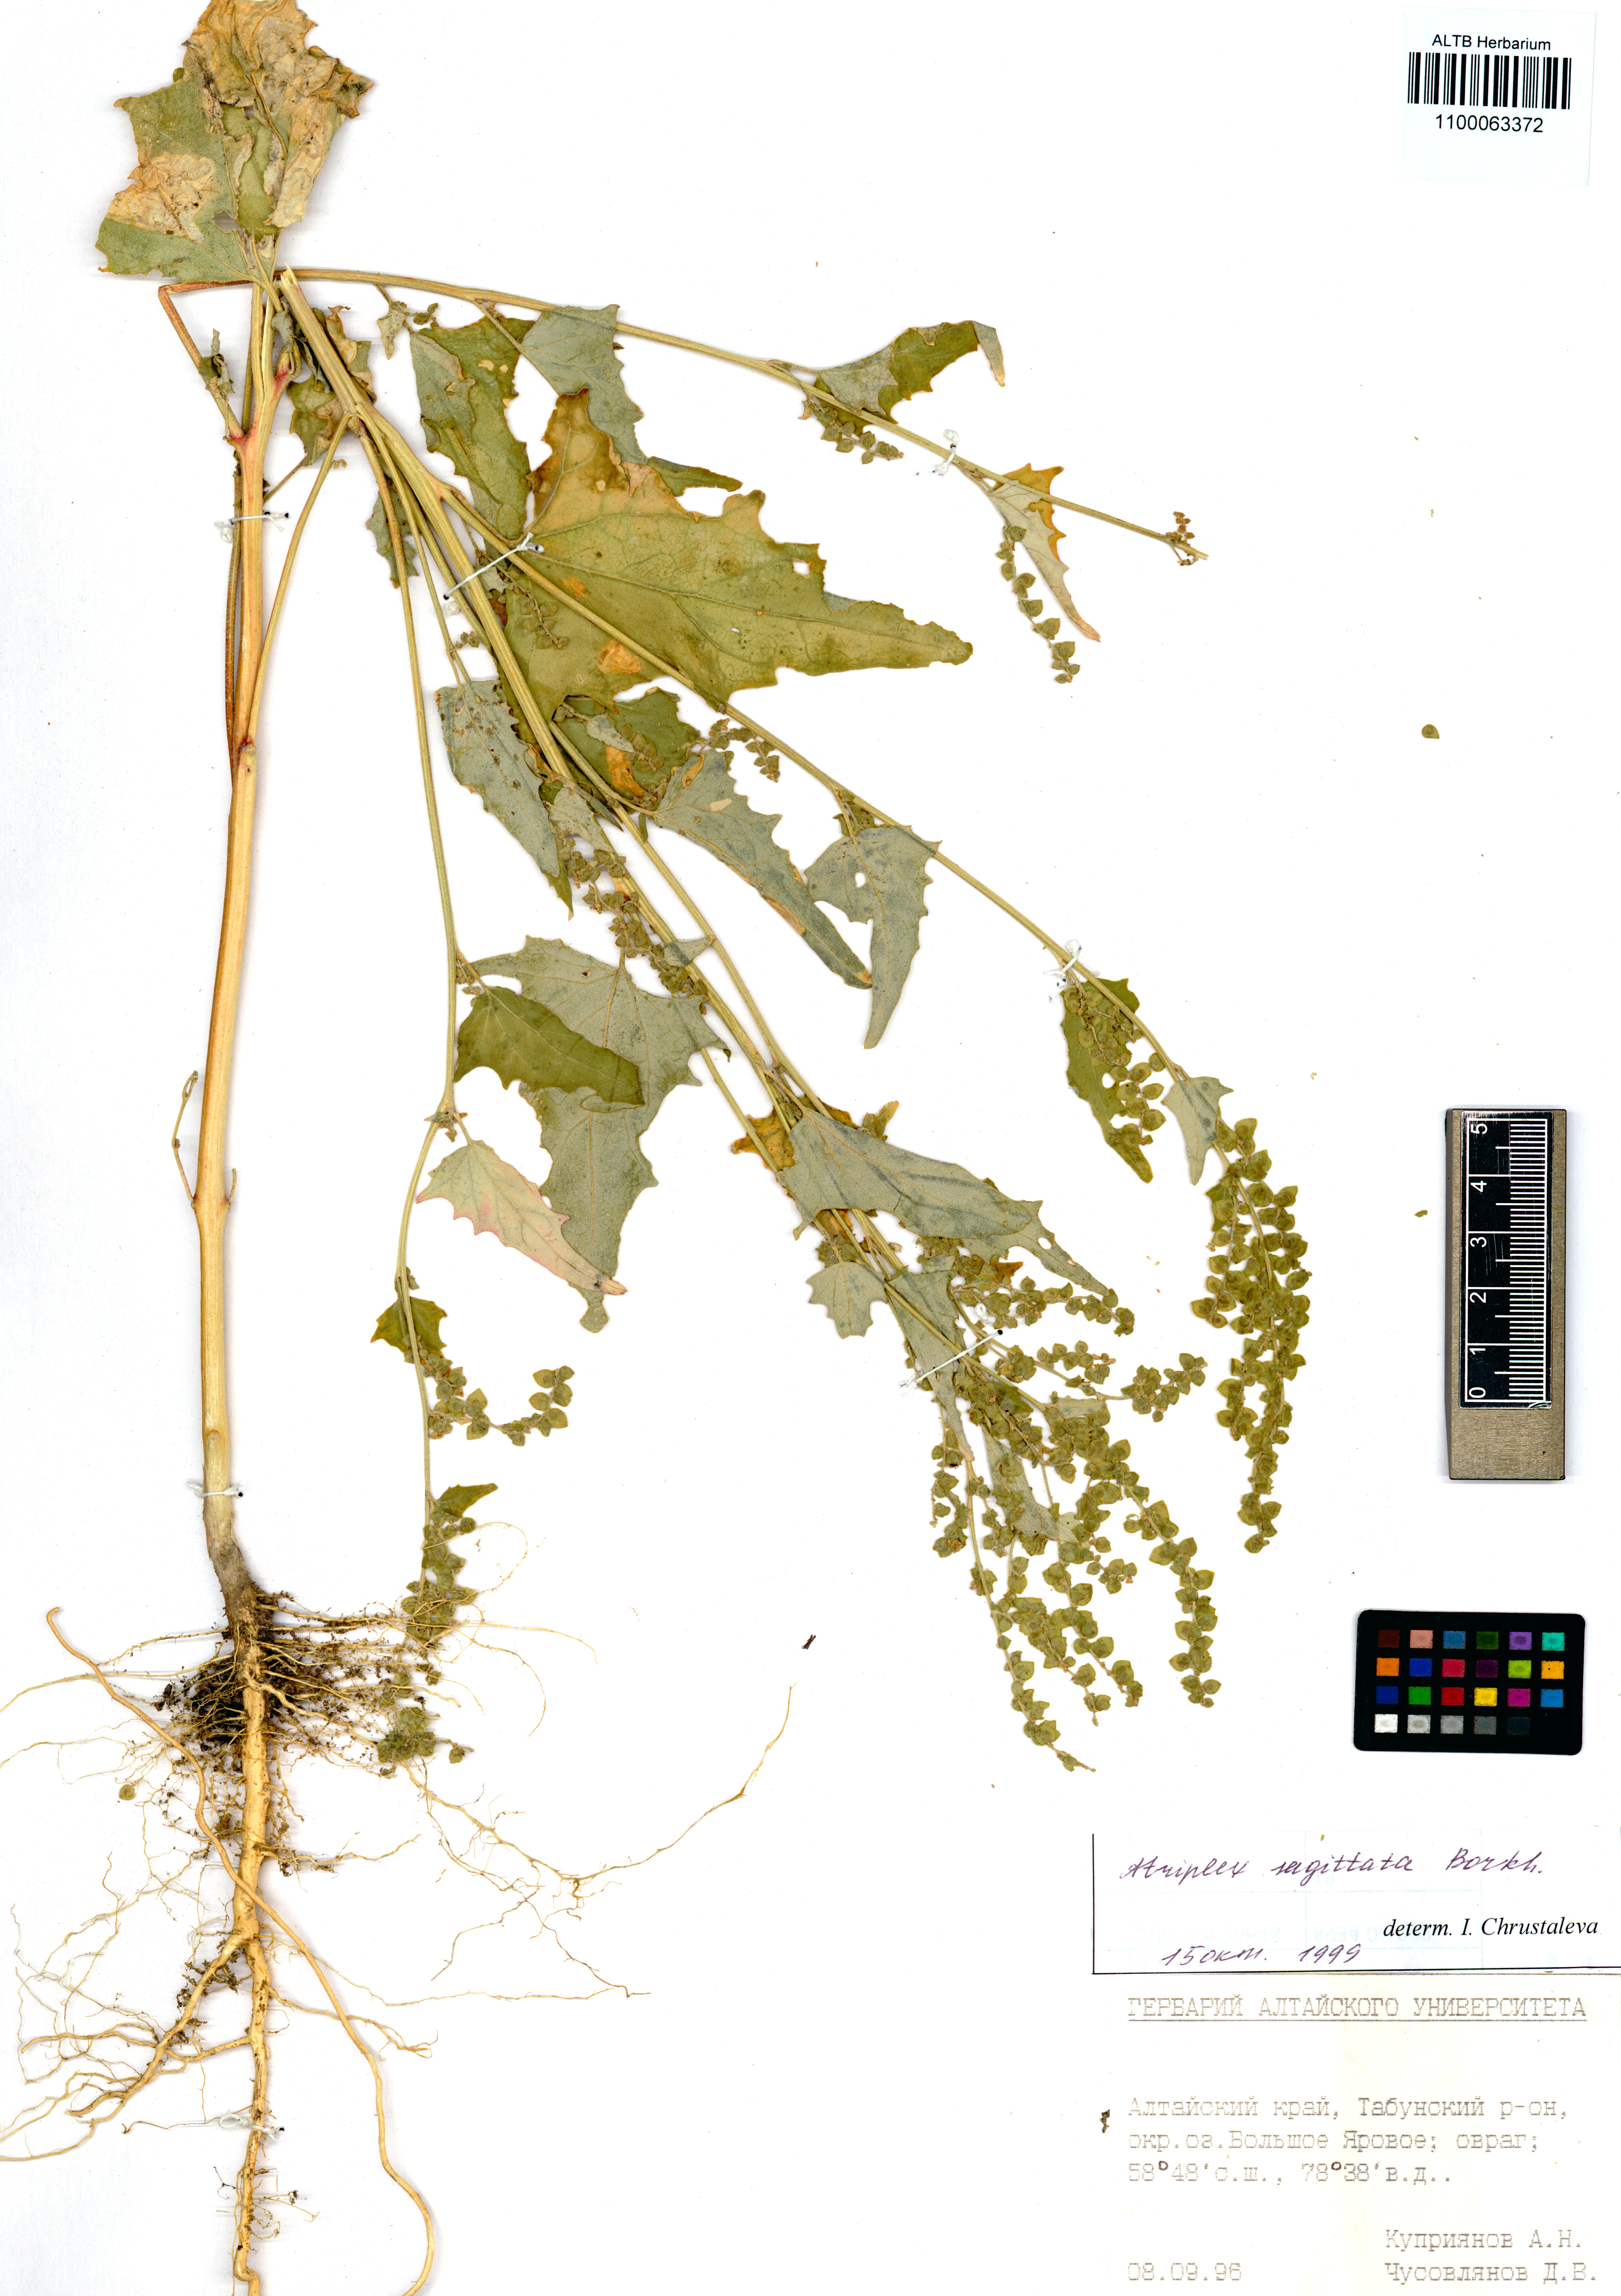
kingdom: Plantae
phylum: Tracheophyta
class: Magnoliopsida
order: Caryophyllales
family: Amaranthaceae
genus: Atriplex
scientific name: Atriplex sagittata
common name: Purple orache
